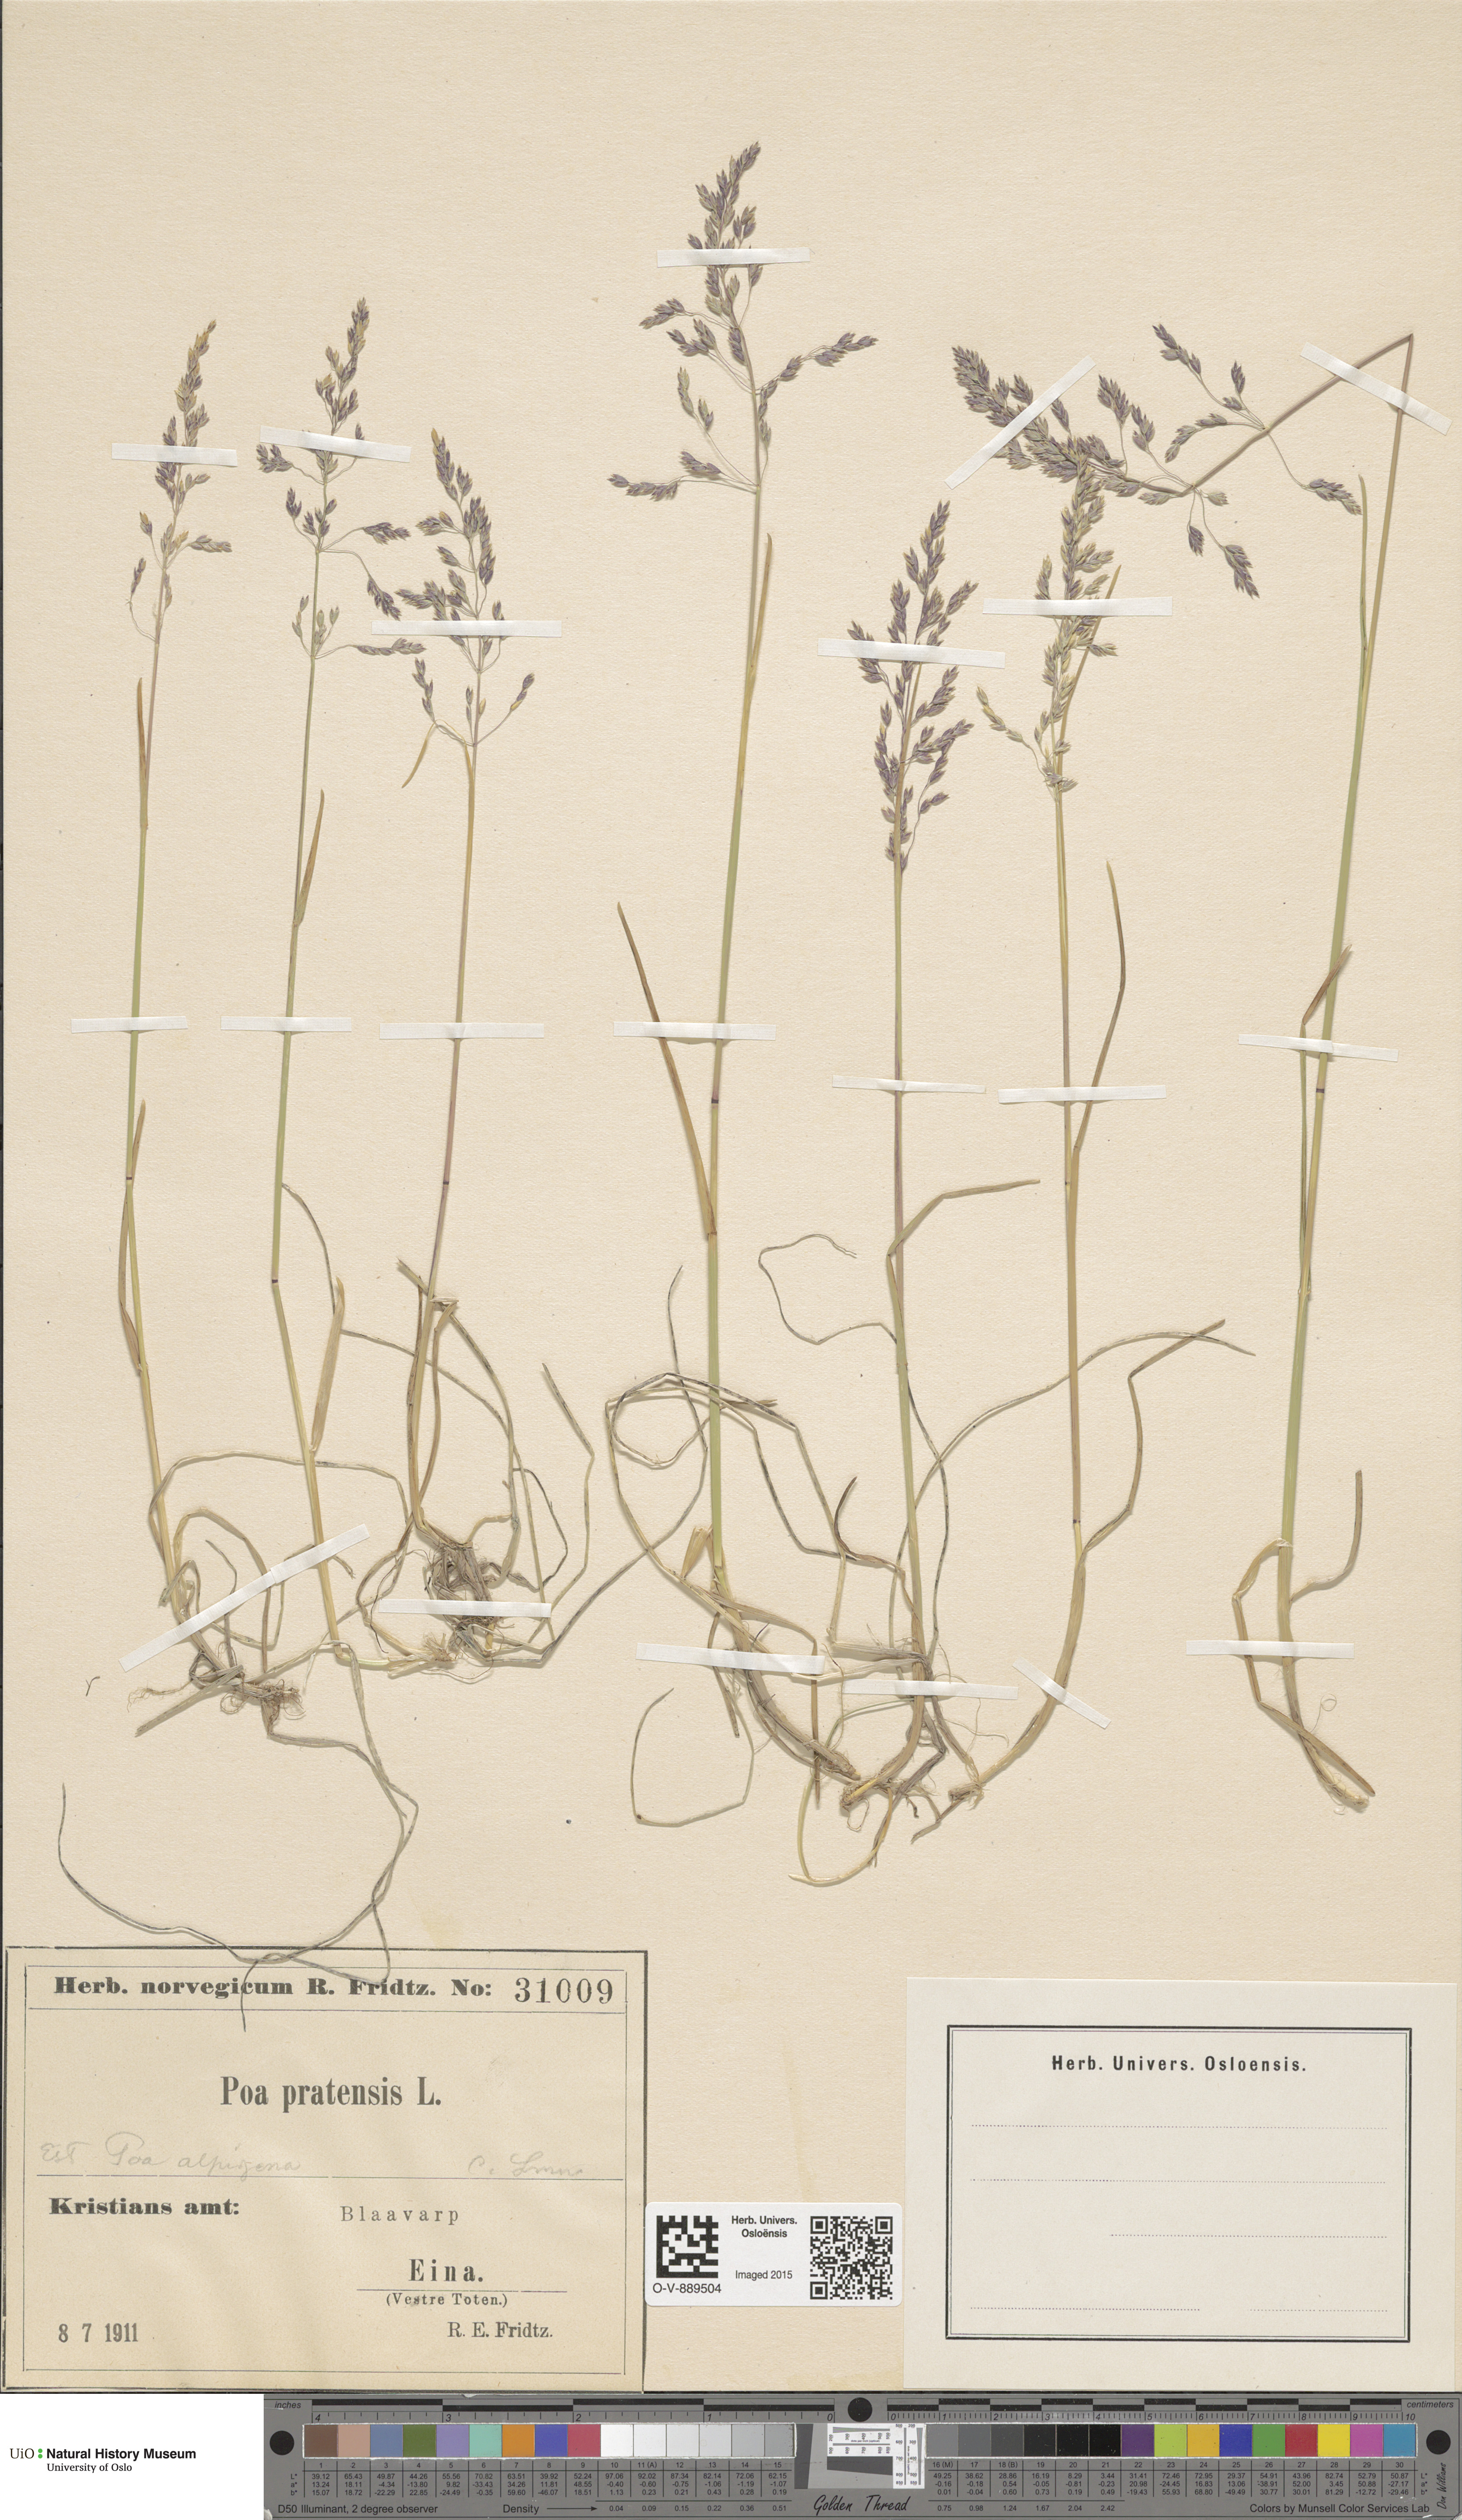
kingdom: Plantae
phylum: Tracheophyta
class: Liliopsida
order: Poales
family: Poaceae
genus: Poa
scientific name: Poa alpigena
